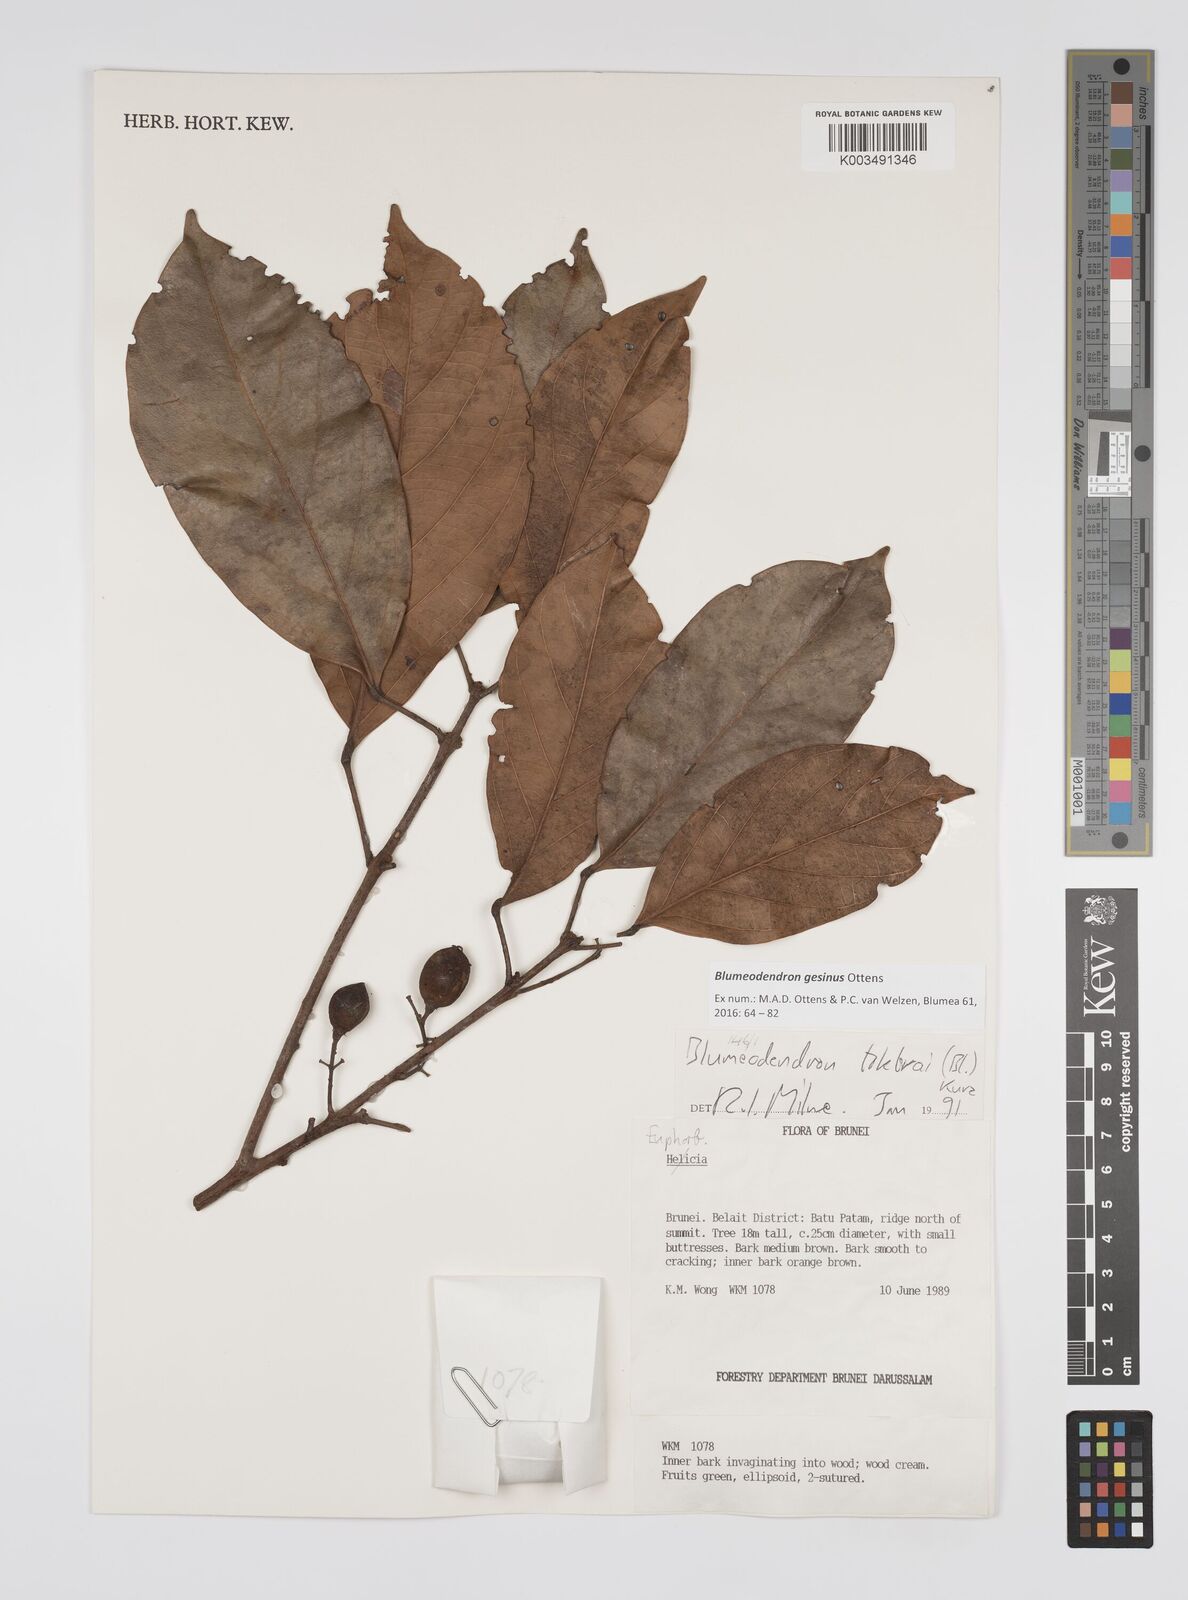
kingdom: Plantae
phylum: Tracheophyta
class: Magnoliopsida
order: Malpighiales
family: Euphorbiaceae
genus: Blumeodendron
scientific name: Blumeodendron gesinus
